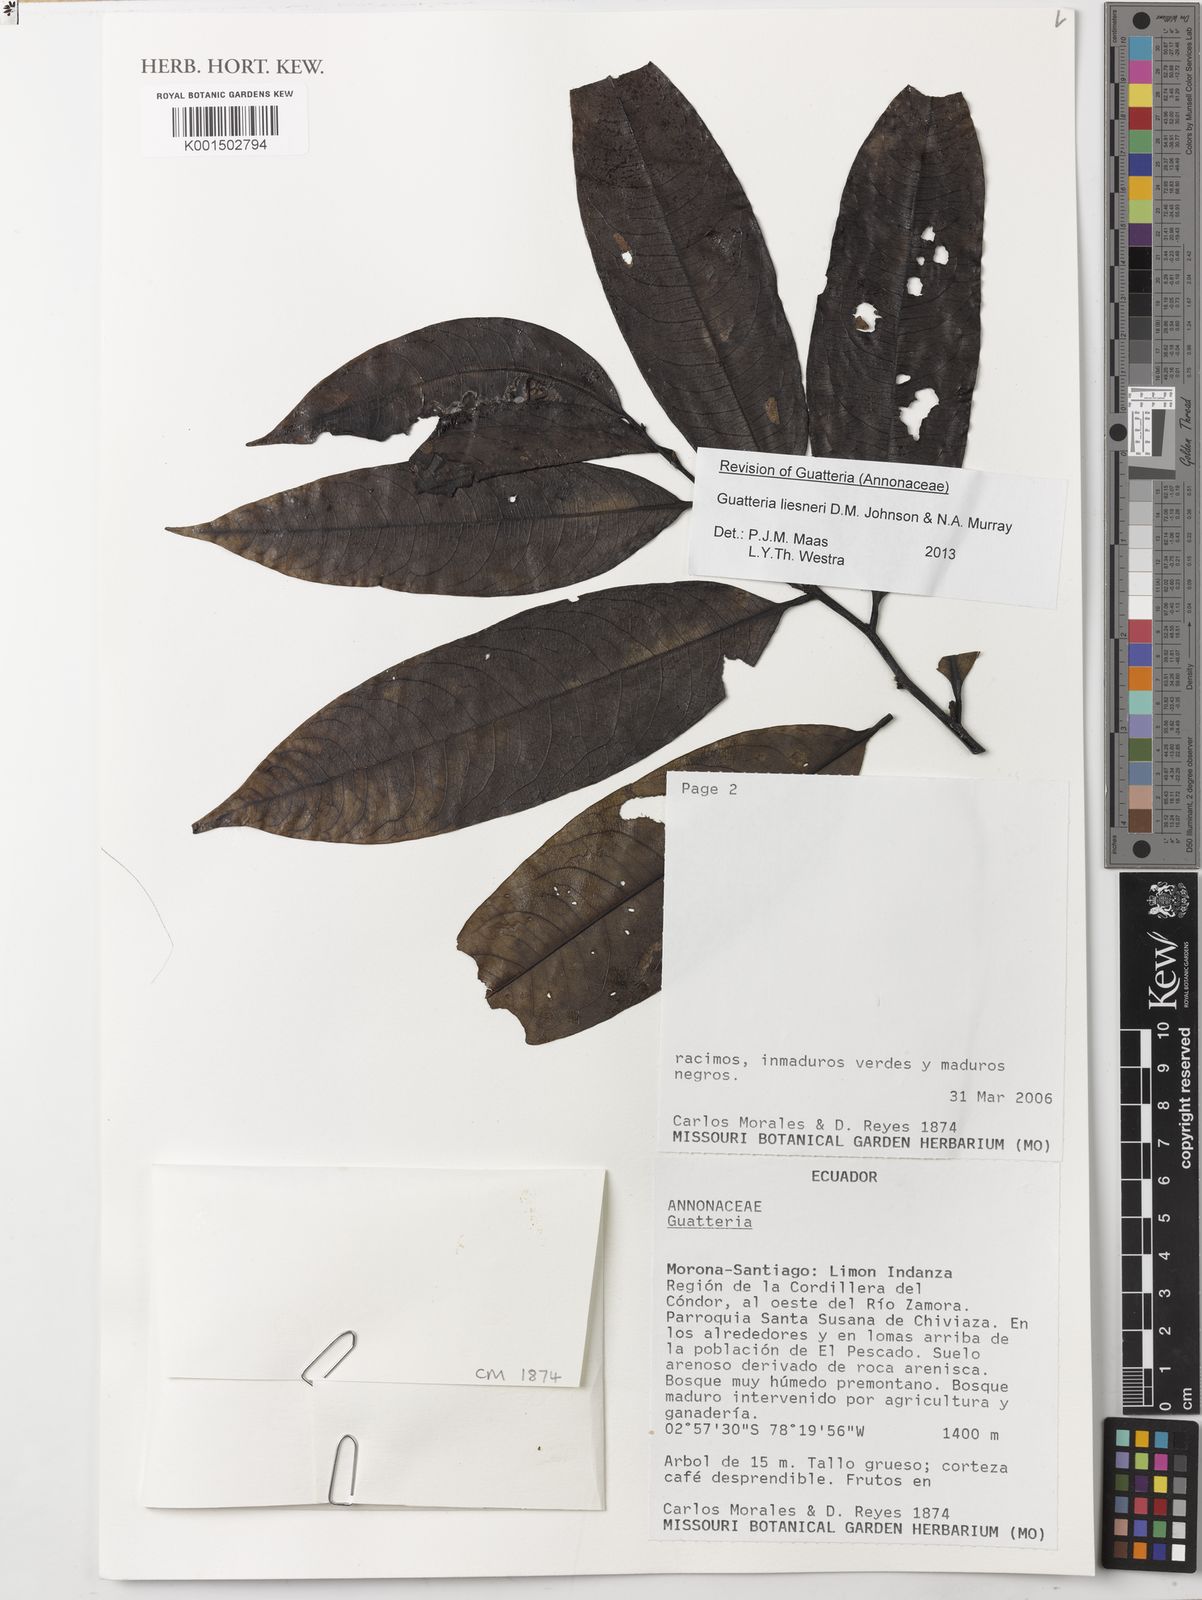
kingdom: Plantae
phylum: Tracheophyta
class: Magnoliopsida
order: Magnoliales
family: Annonaceae
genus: Guatteria
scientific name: Guatteria liesneri
